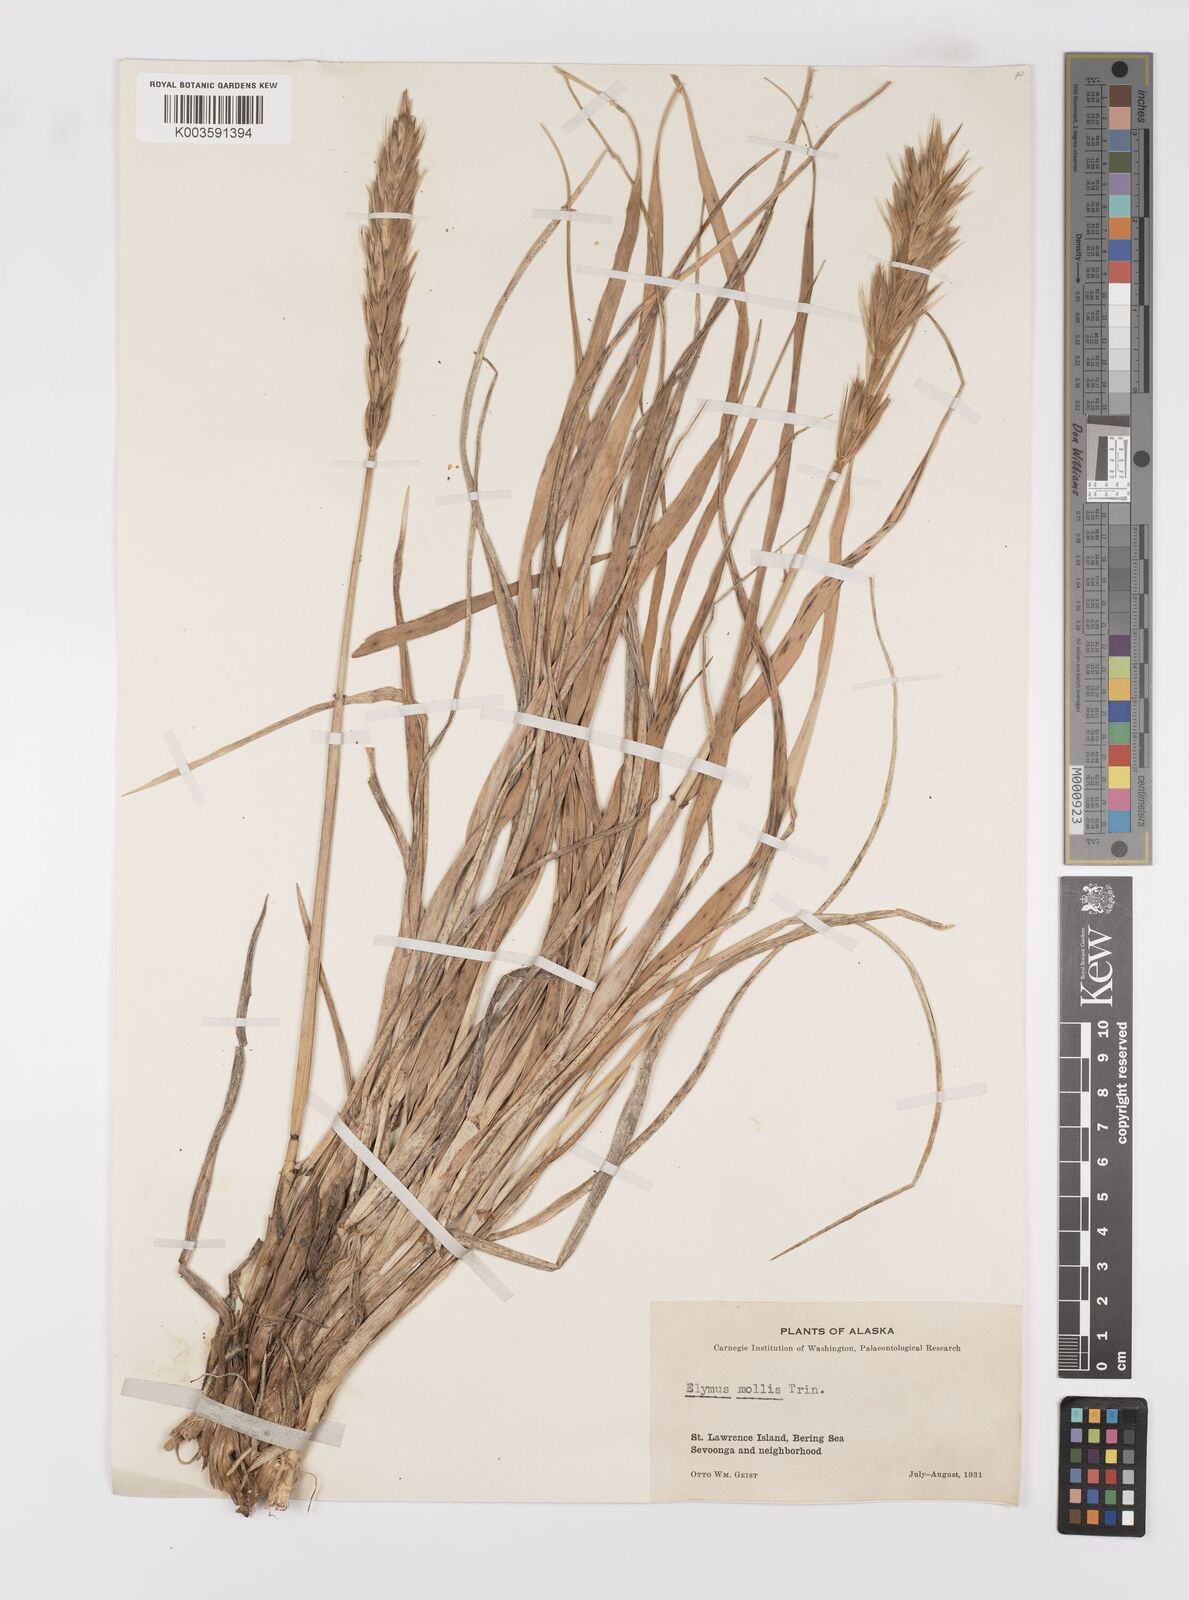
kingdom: Plantae
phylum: Tracheophyta
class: Liliopsida
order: Poales
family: Poaceae
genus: Leymus
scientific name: Leymus mollis
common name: American dune grass
